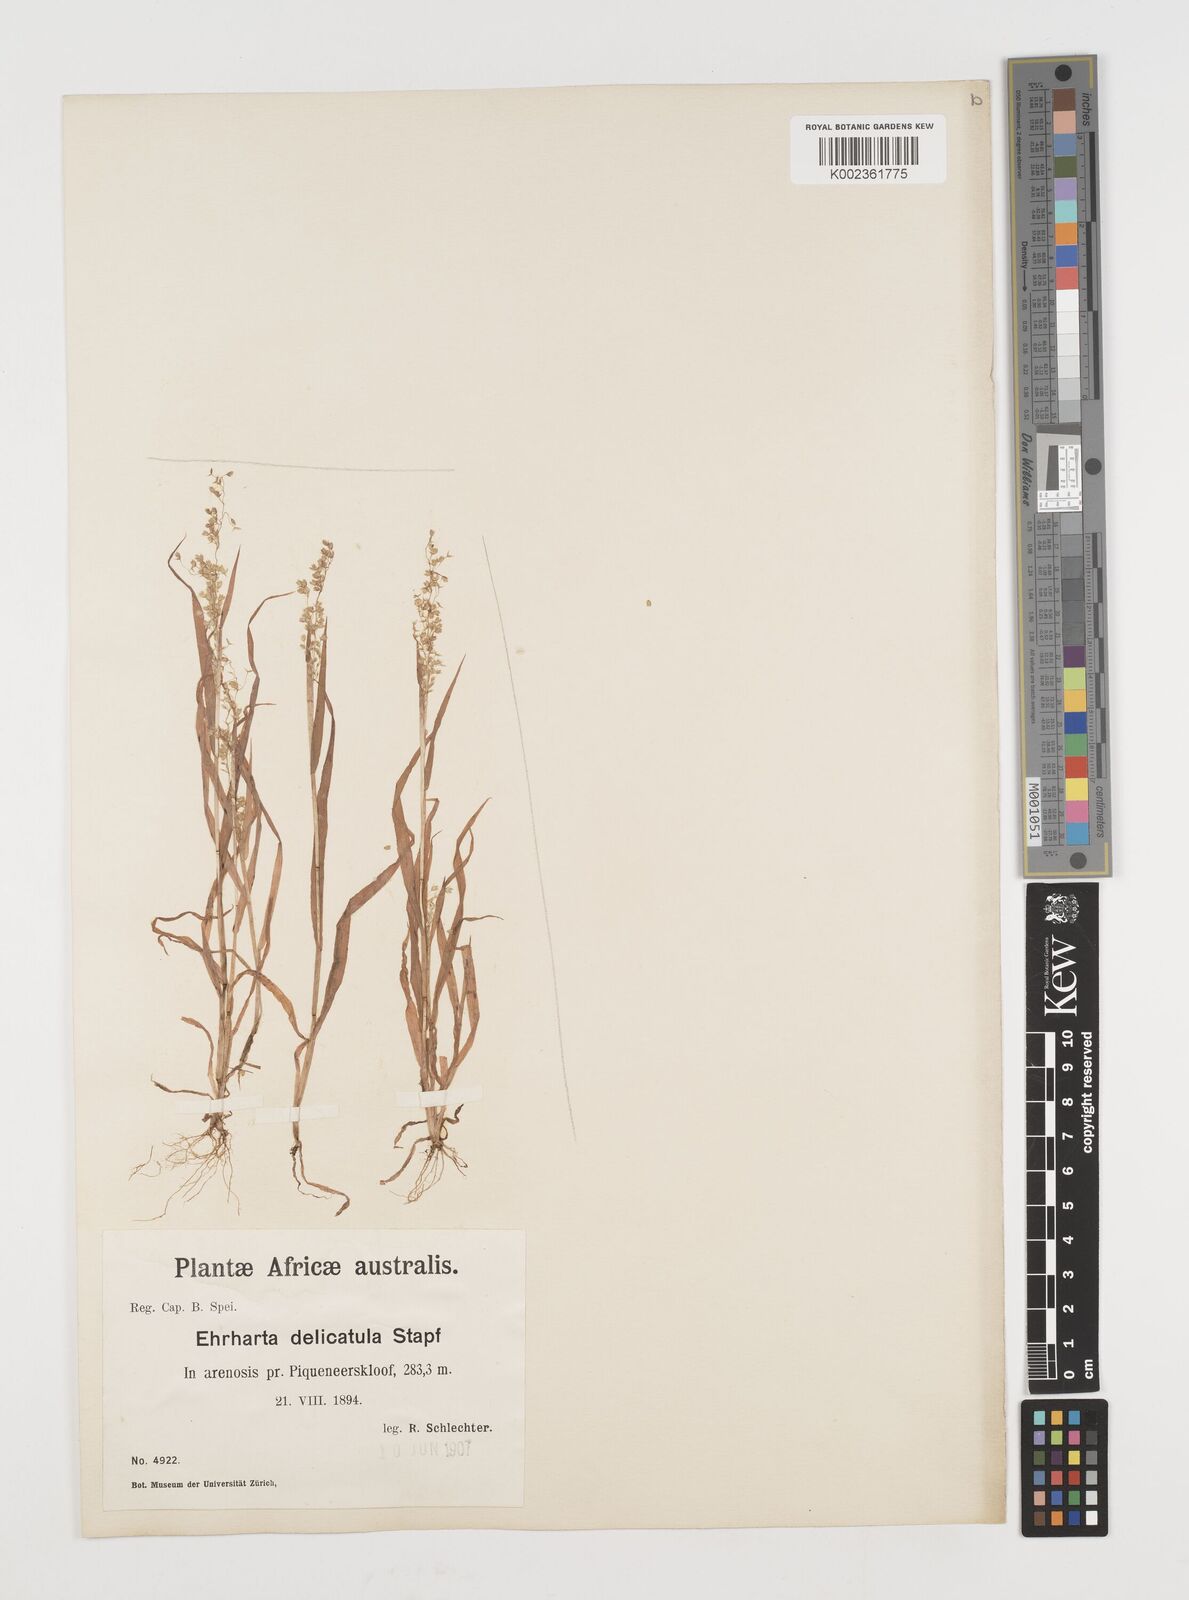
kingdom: Plantae
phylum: Tracheophyta
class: Liliopsida
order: Poales
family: Poaceae
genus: Ehrharta
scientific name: Ehrharta delicatula
